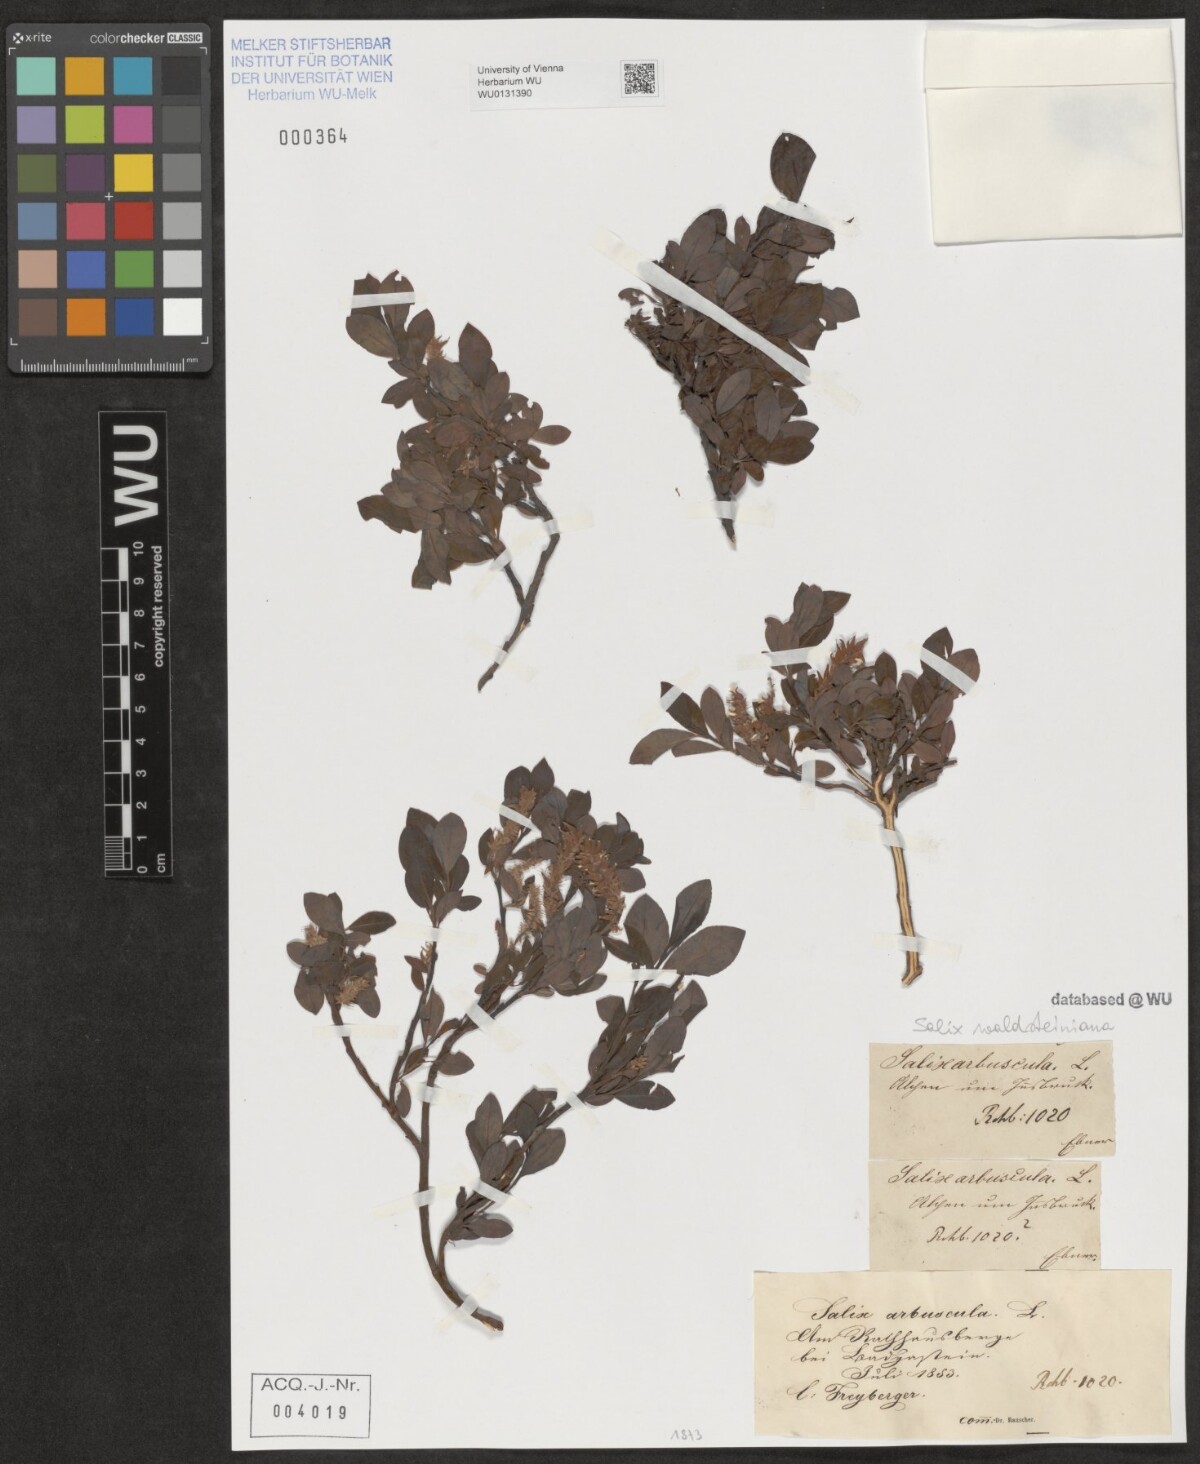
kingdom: Plantae
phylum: Tracheophyta
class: Magnoliopsida
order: Malpighiales
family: Salicaceae
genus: Salix
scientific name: Salix waldsteiniana
